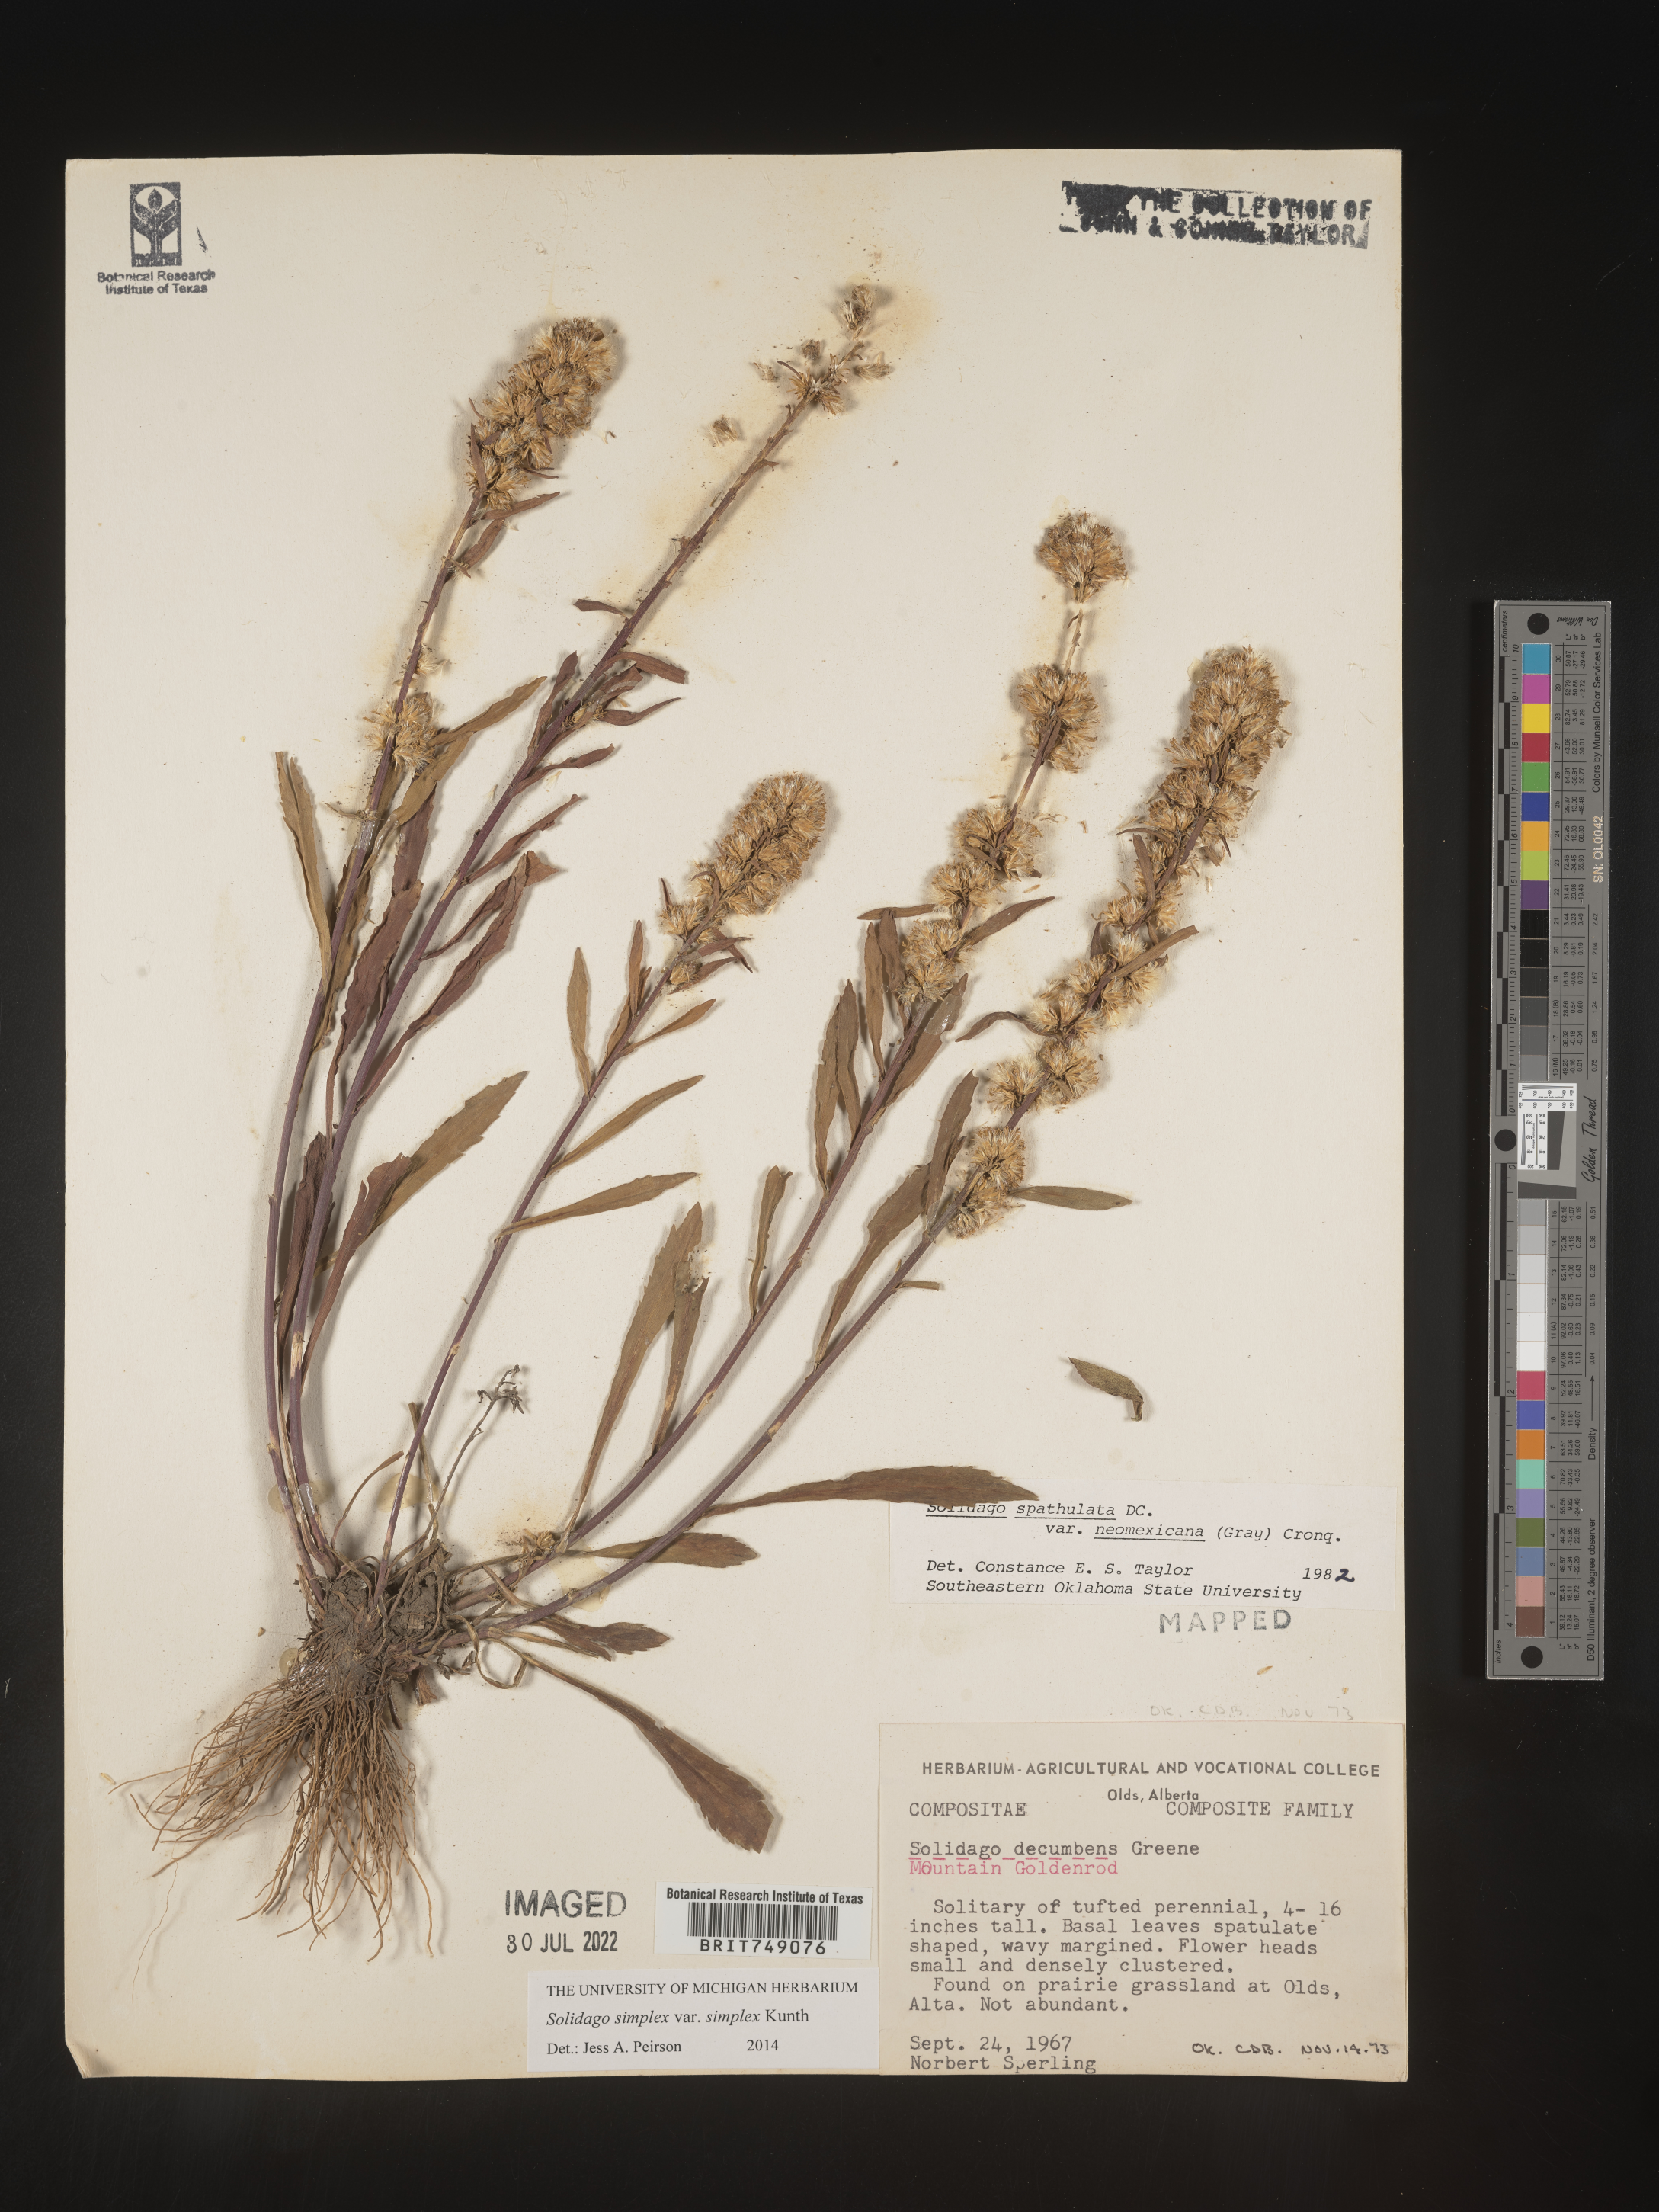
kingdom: Plantae
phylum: Tracheophyta
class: Magnoliopsida
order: Asterales
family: Asteraceae
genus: Solidago
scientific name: Solidago simplex
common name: Sticky goldenrod
